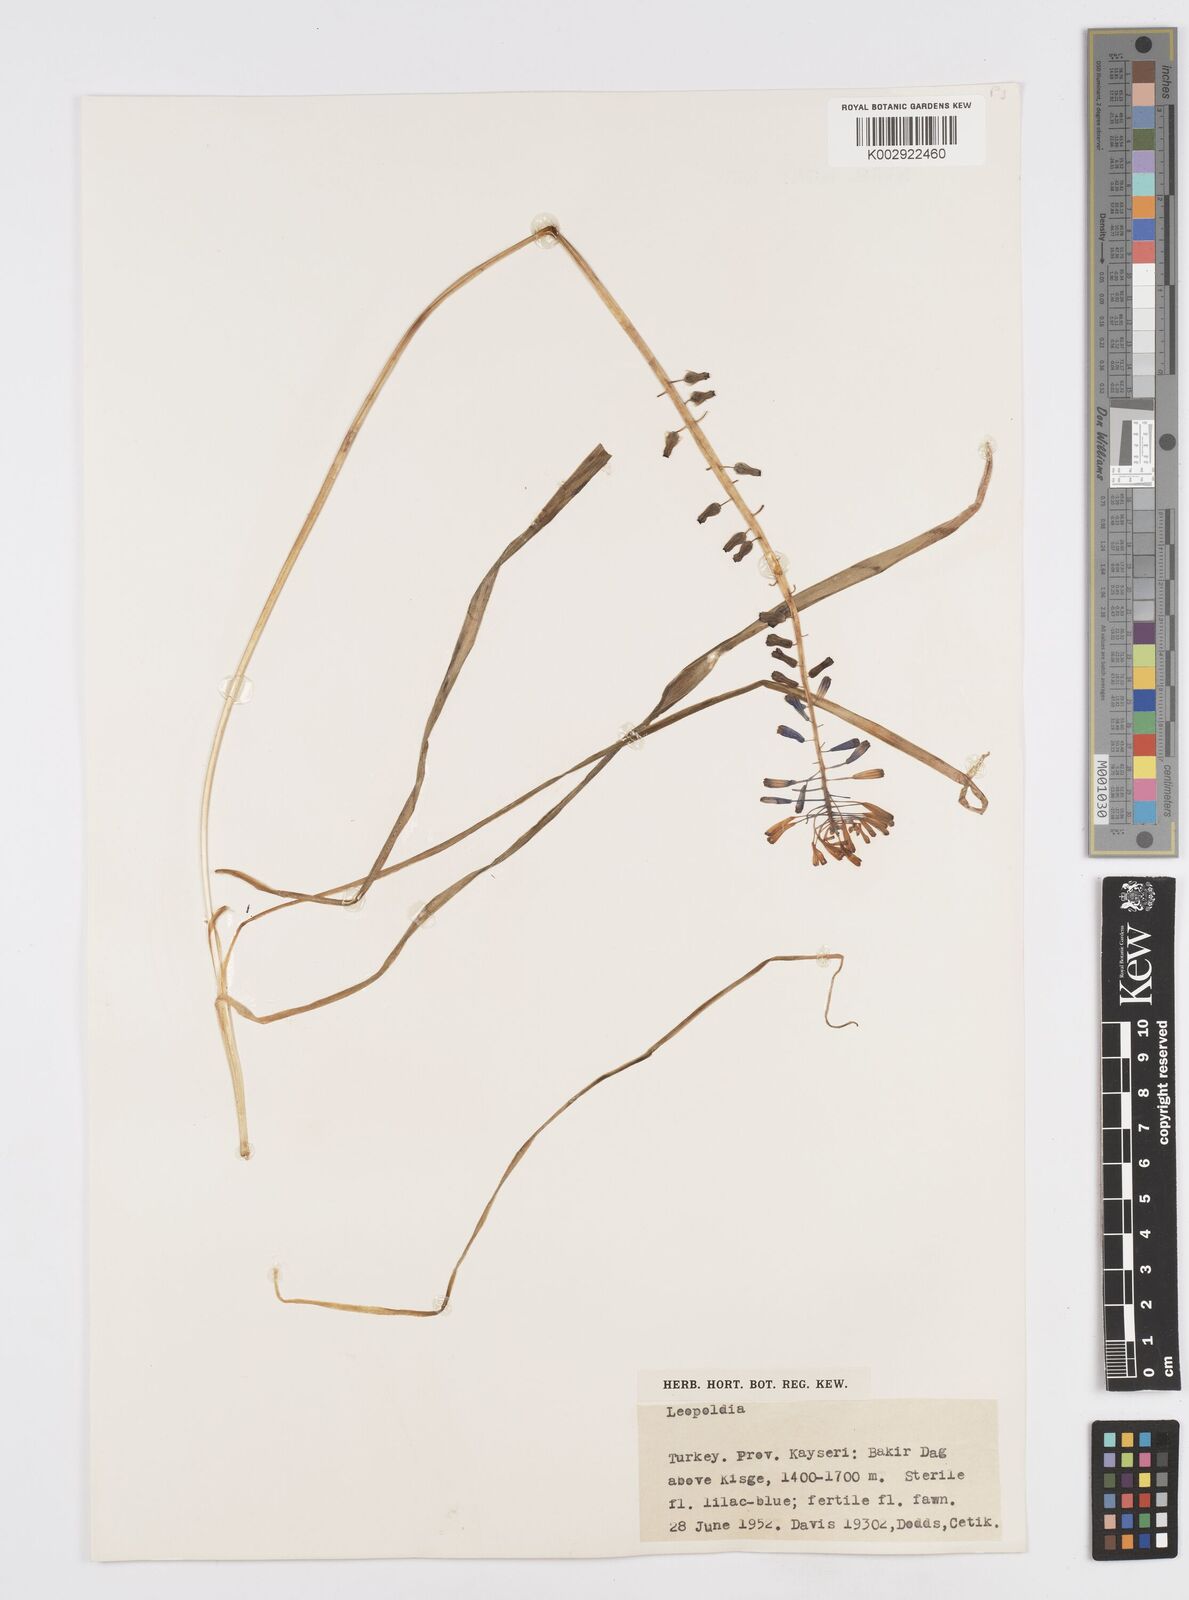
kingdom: Plantae
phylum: Tracheophyta
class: Liliopsida
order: Asparagales
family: Asparagaceae
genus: Muscari
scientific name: Muscari tenuiflorum
